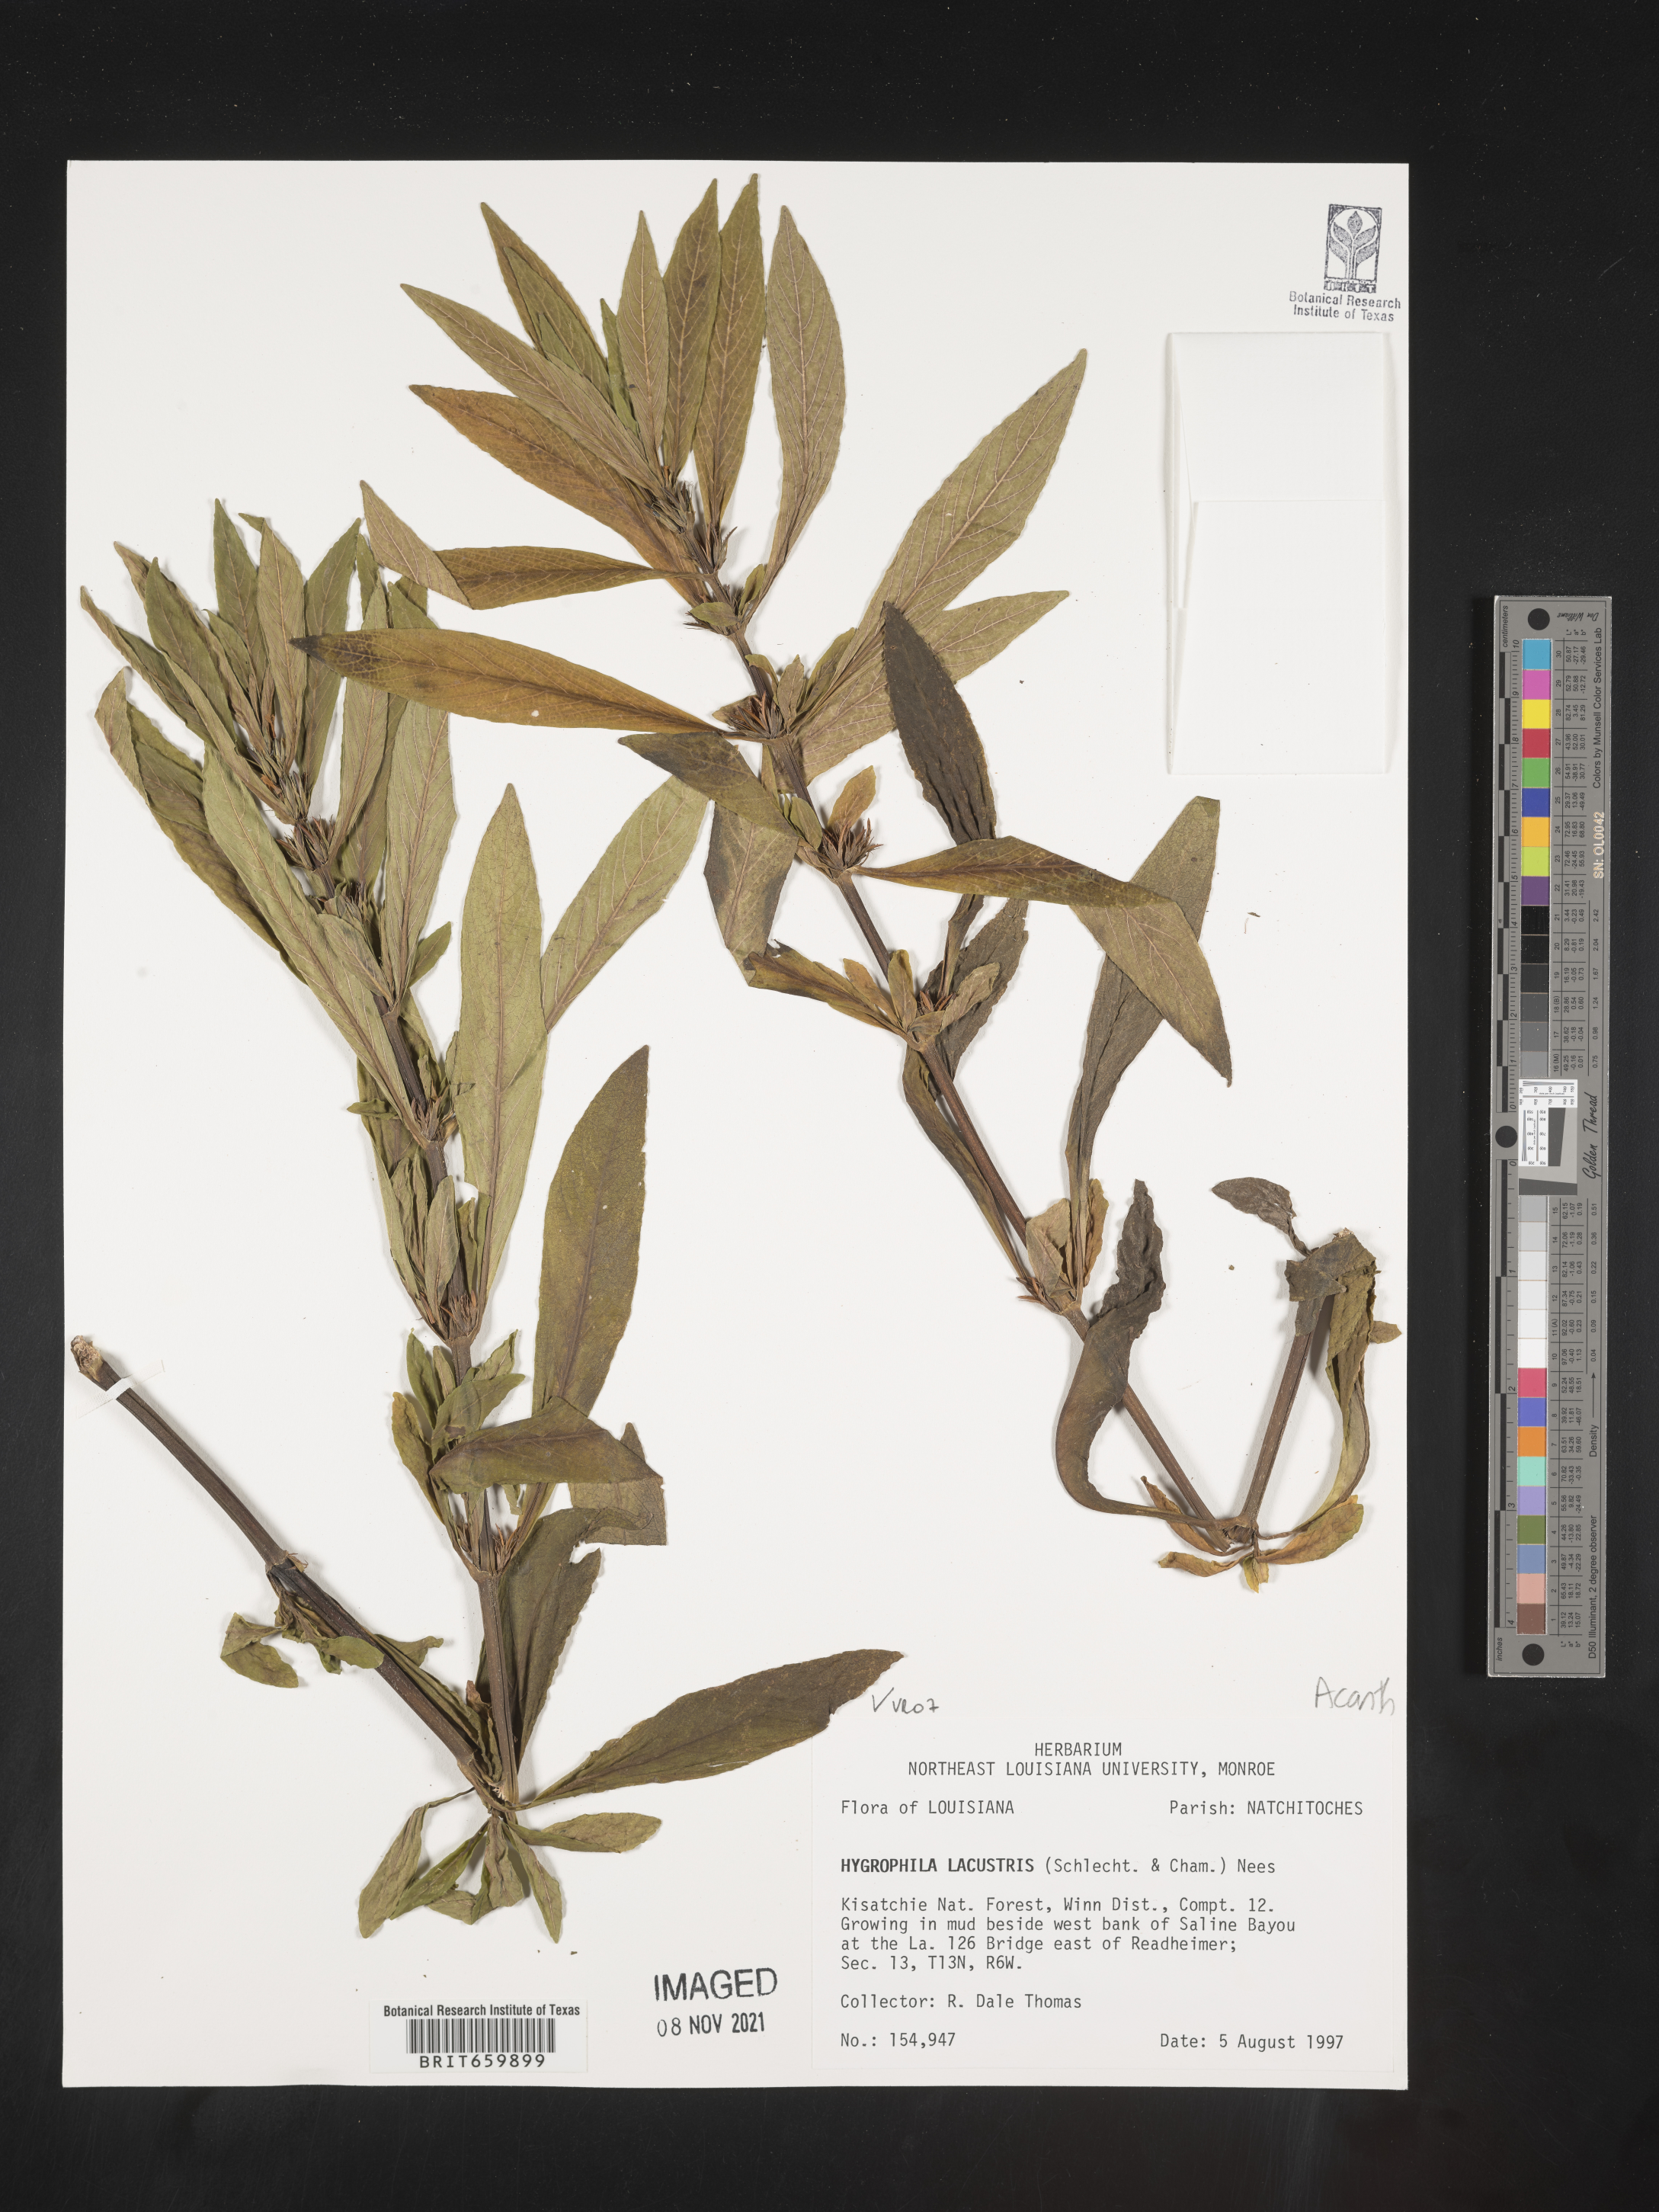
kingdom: Plantae
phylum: Tracheophyta
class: Magnoliopsida
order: Lamiales
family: Acanthaceae
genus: Hygrophila
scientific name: Hygrophila costata
